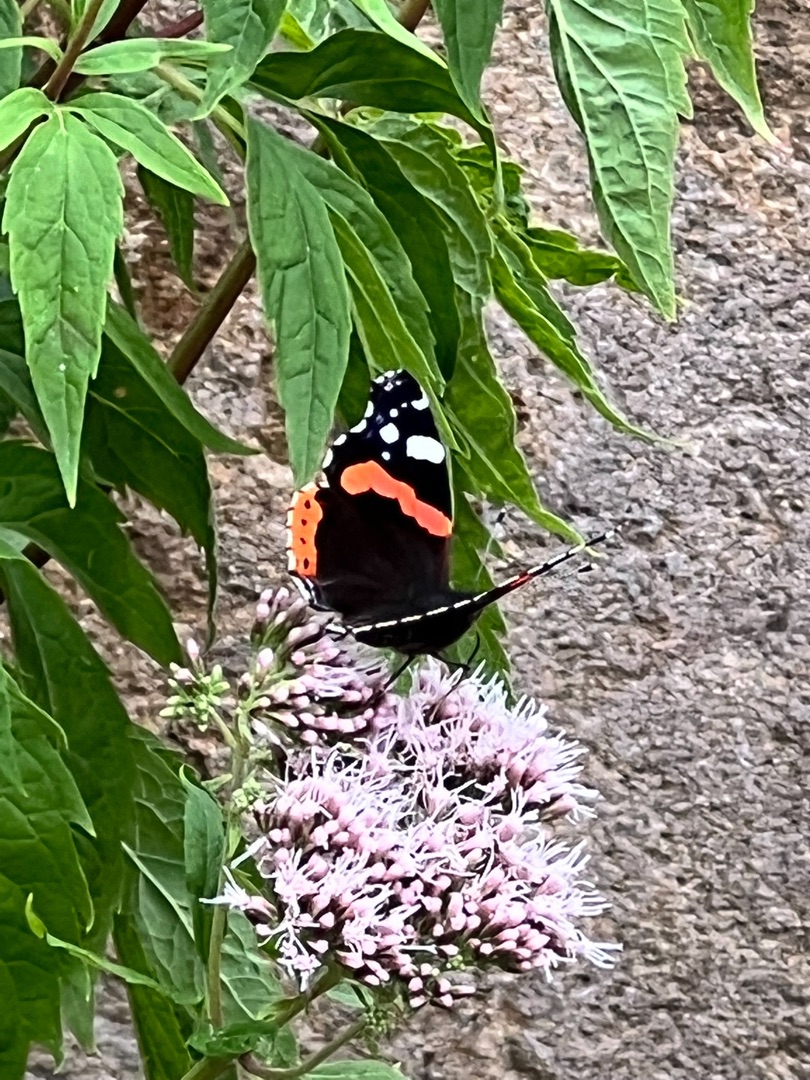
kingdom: Animalia
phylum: Arthropoda
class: Insecta
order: Lepidoptera
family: Nymphalidae
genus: Vanessa
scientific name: Vanessa atalanta
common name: Admiral
